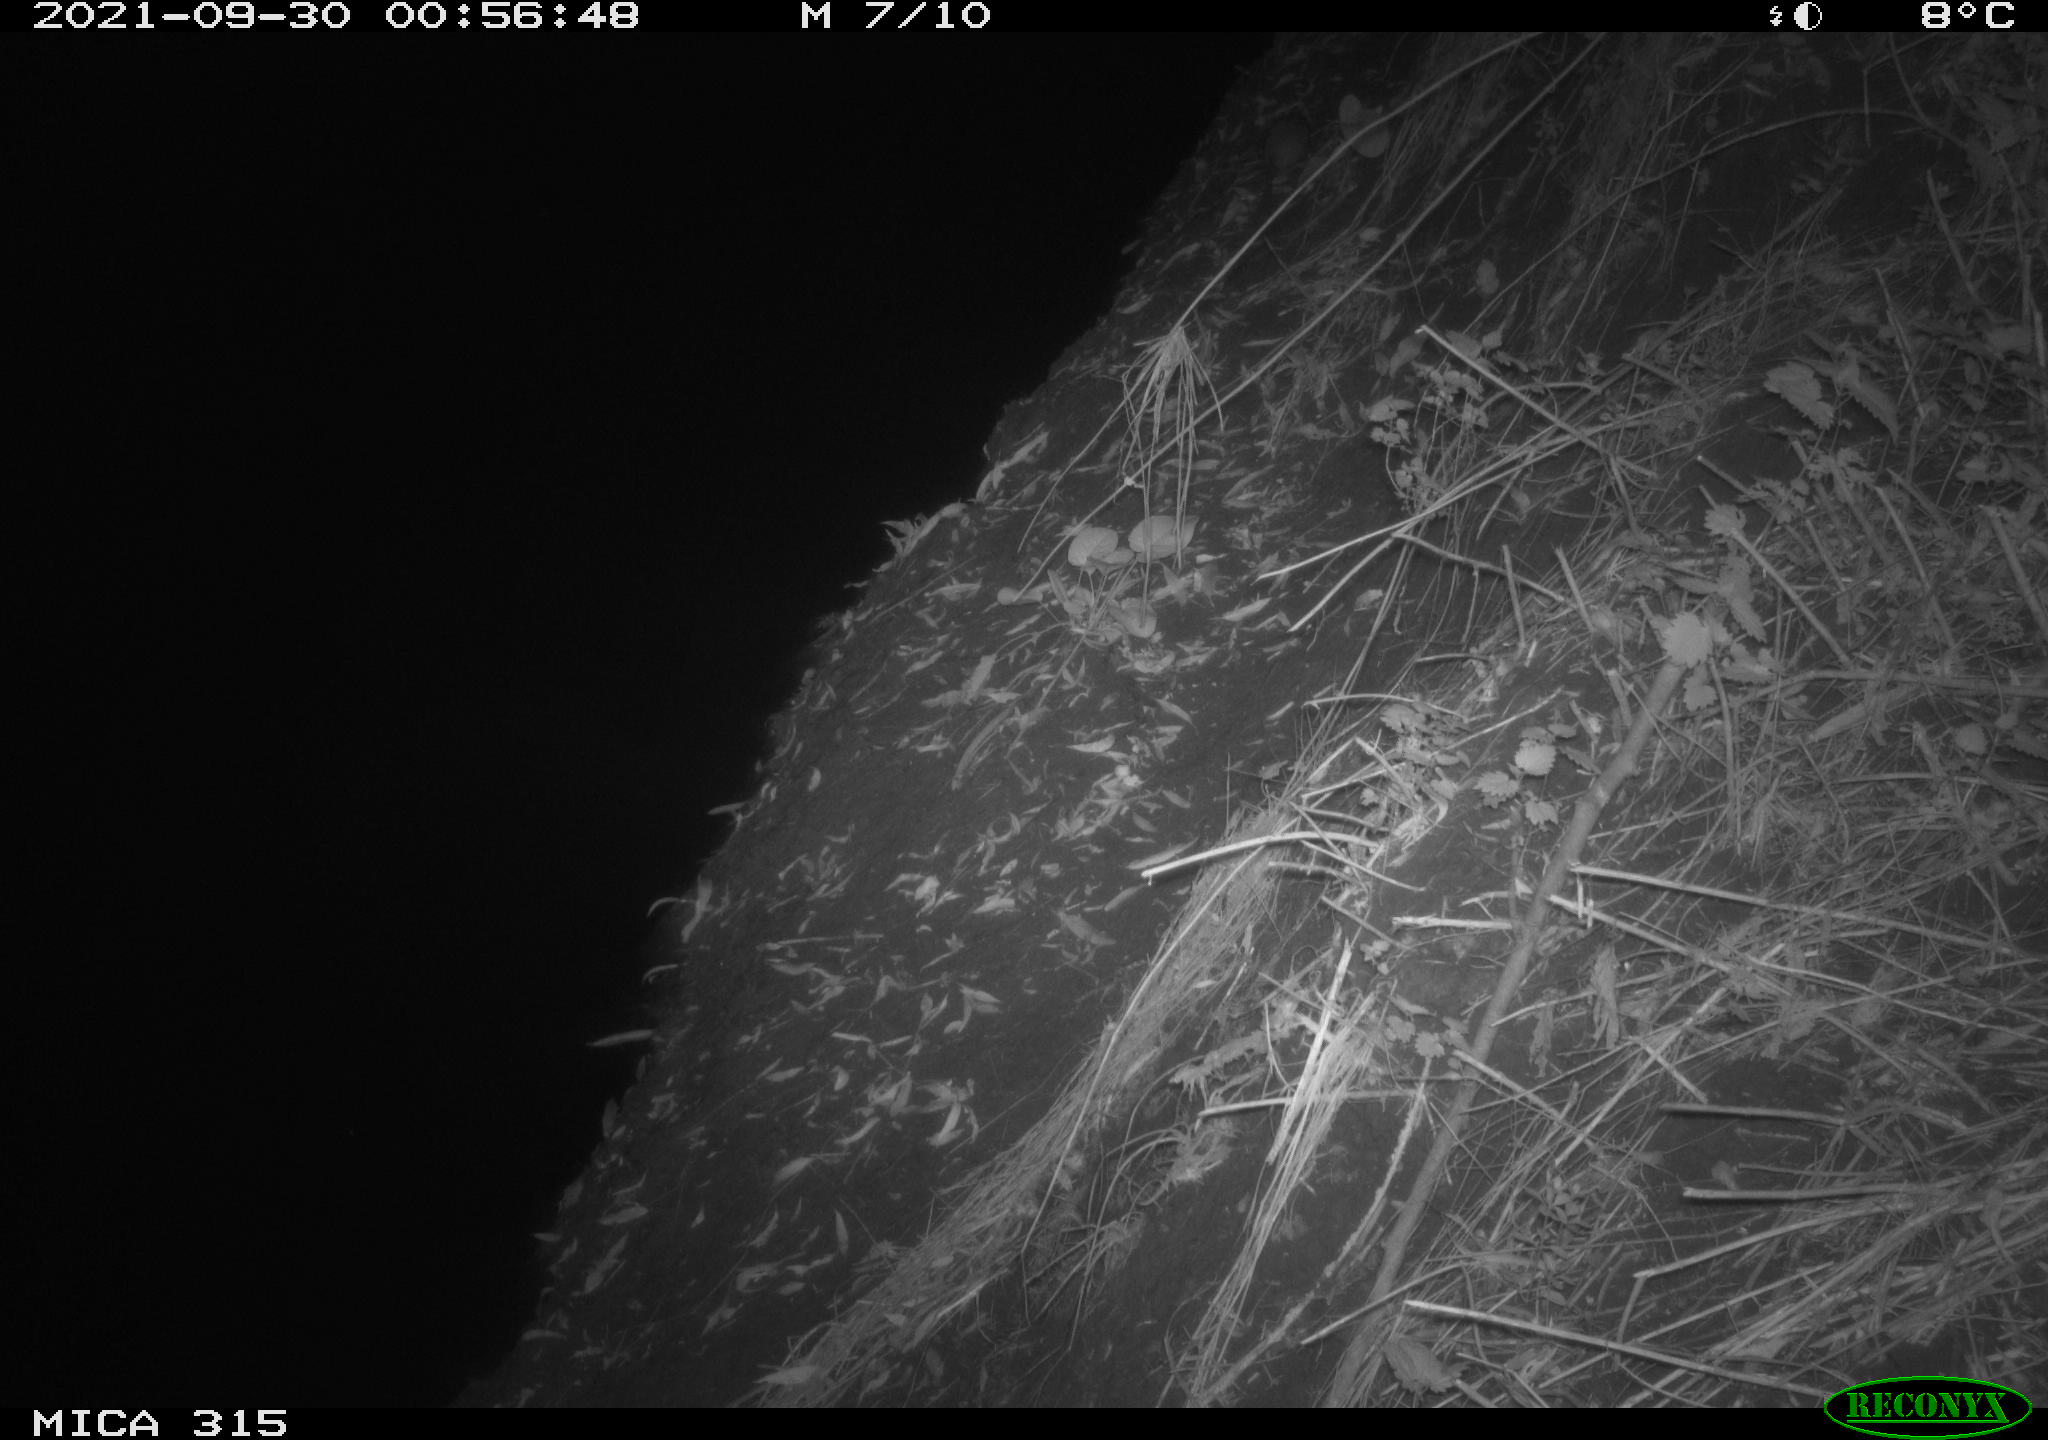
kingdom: Animalia
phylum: Chordata
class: Mammalia
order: Rodentia
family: Muridae
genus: Rattus
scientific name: Rattus norvegicus
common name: Brown rat
